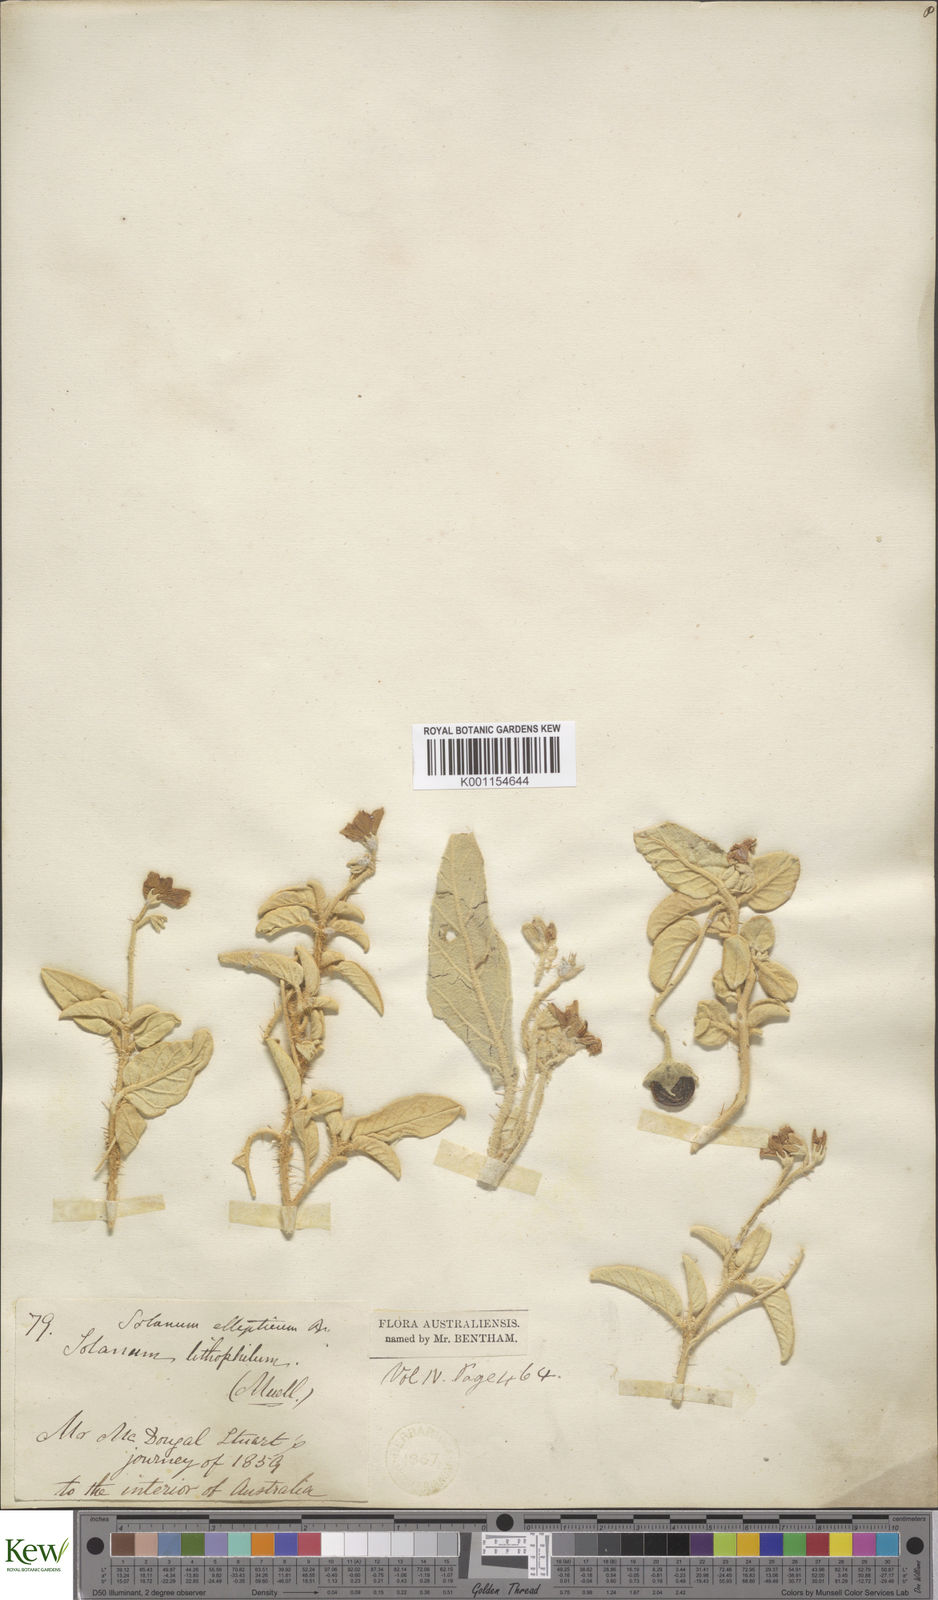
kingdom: Plantae
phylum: Tracheophyta
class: Magnoliopsida
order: Solanales
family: Solanaceae
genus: Solanum
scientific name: Solanum ellipticum
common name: Potato-bush
